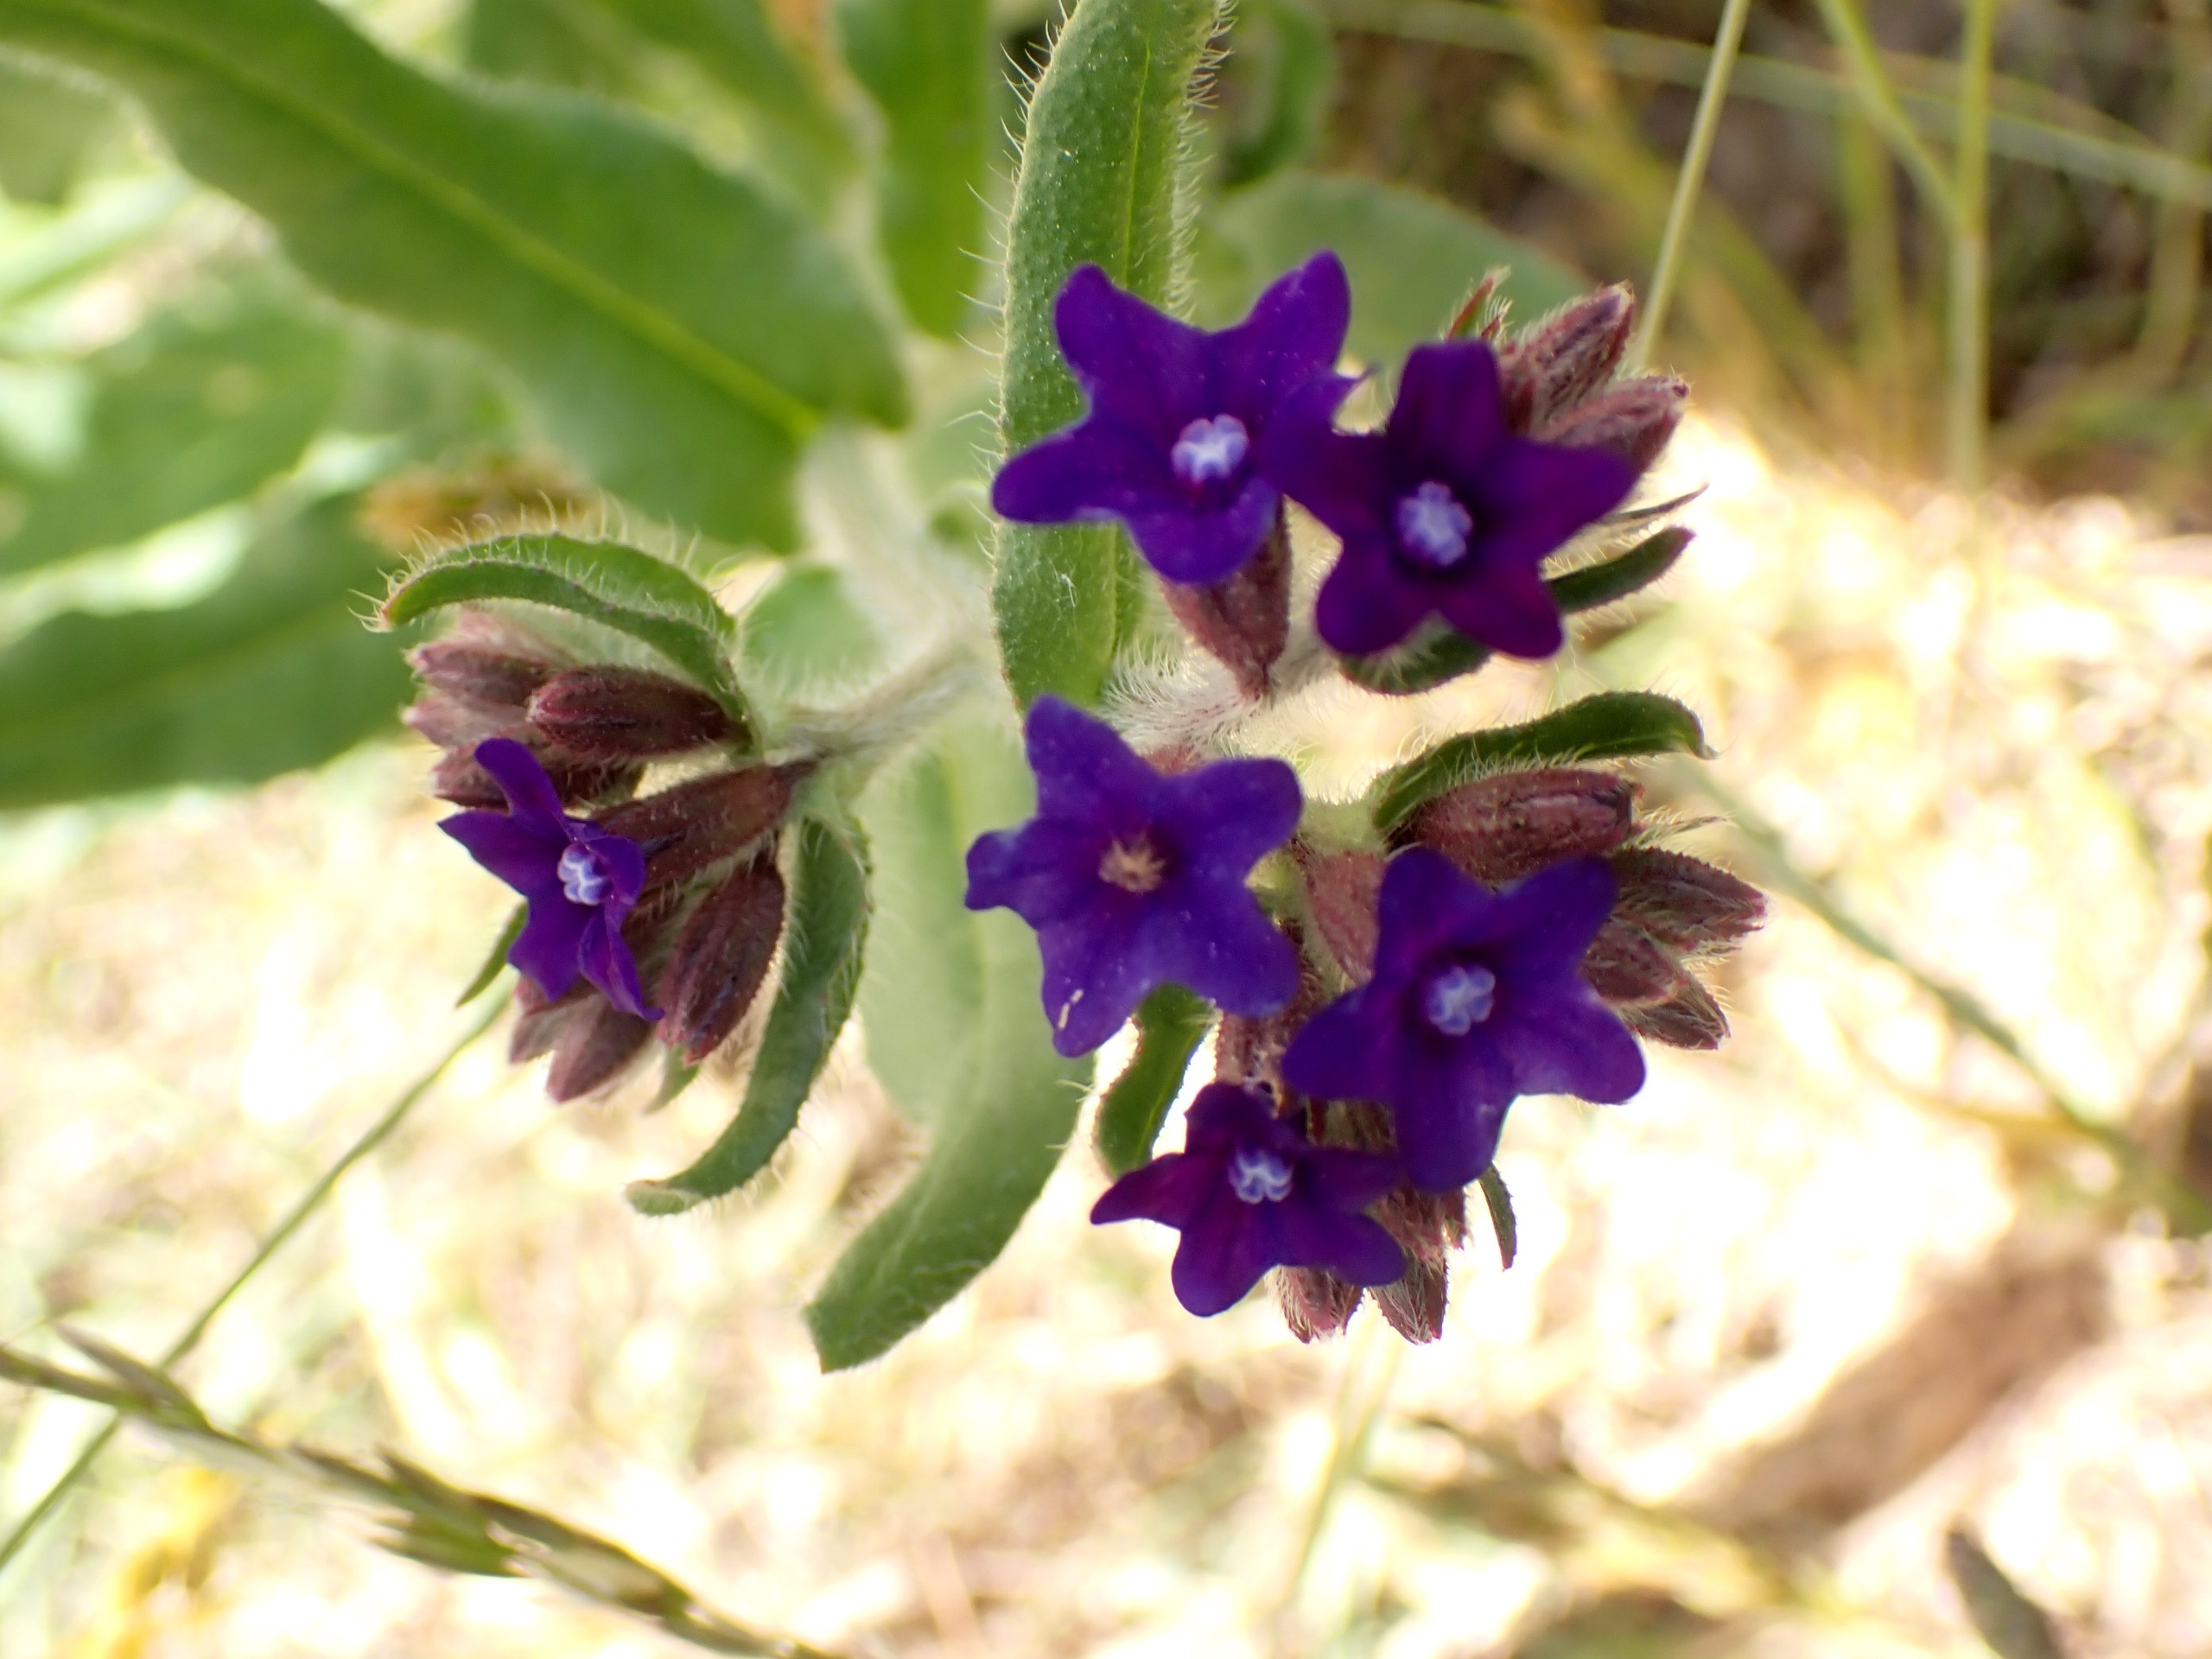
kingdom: Plantae
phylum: Tracheophyta
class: Magnoliopsida
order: Boraginales
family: Boraginaceae
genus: Anchusa
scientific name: Anchusa officinalis
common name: Læge-oksetunge
